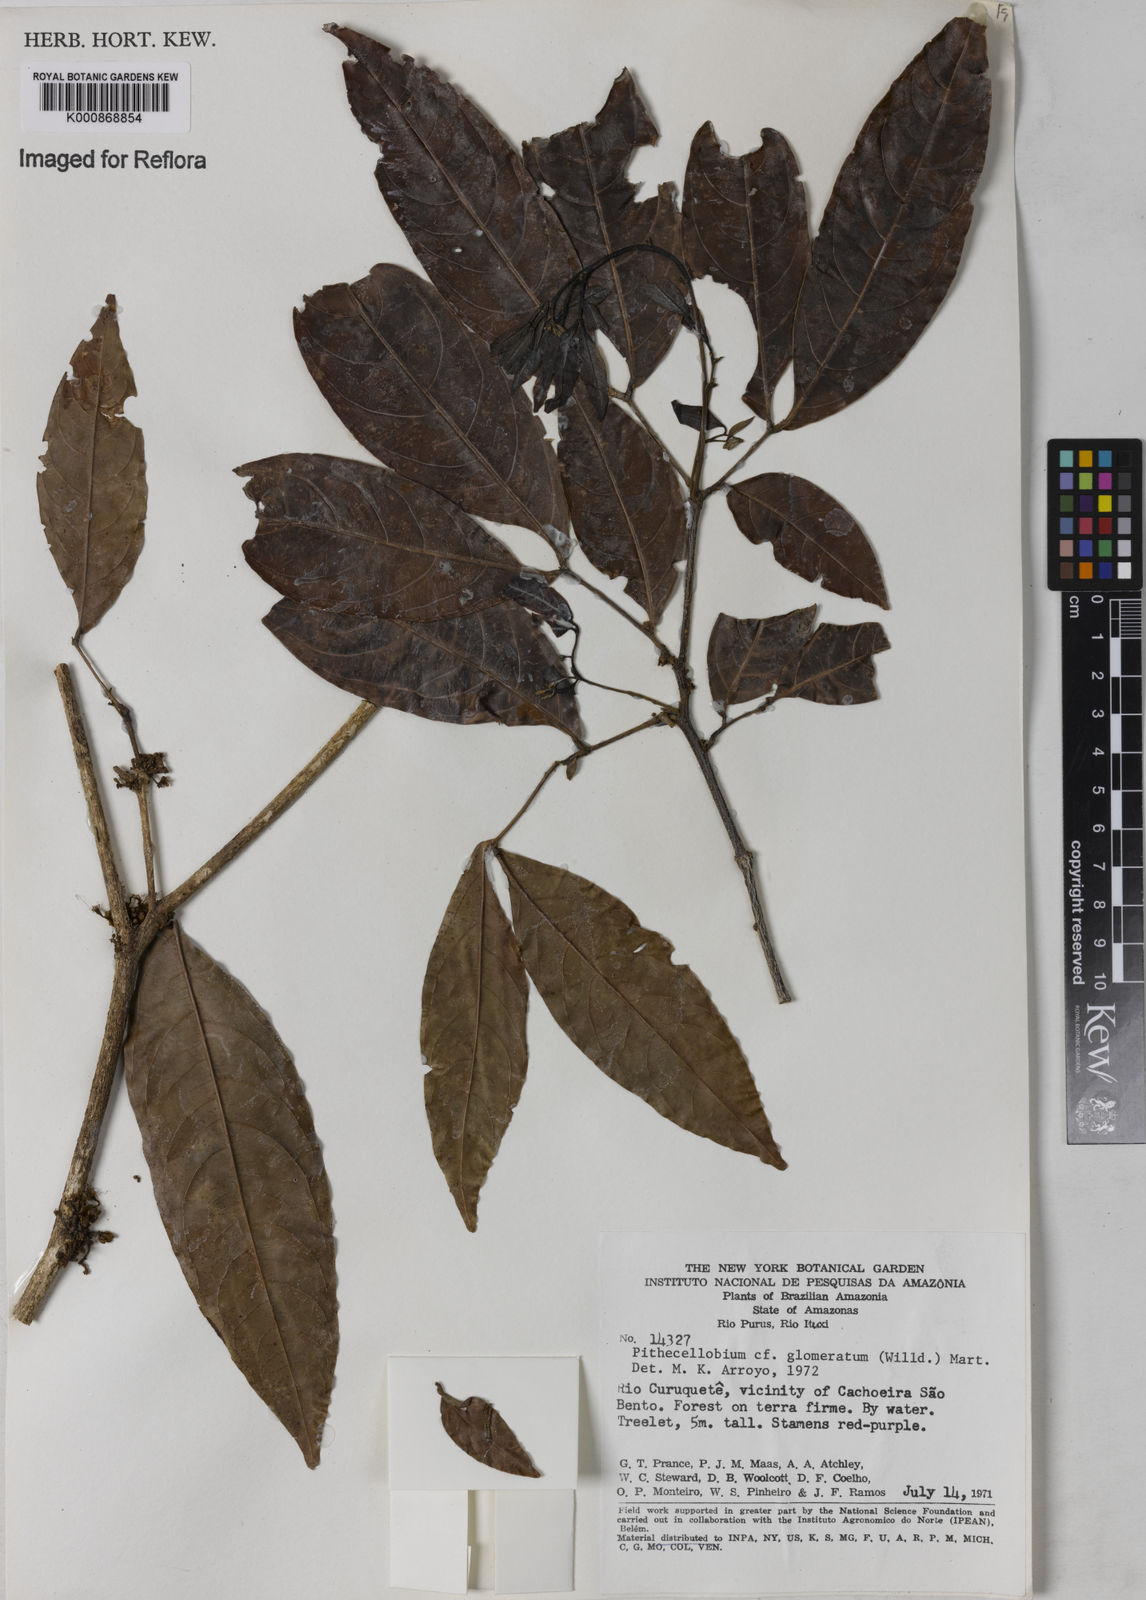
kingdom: Plantae
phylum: Tracheophyta
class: Magnoliopsida
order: Fabales
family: Fabaceae
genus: Zygia
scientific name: Zygia cataractae
